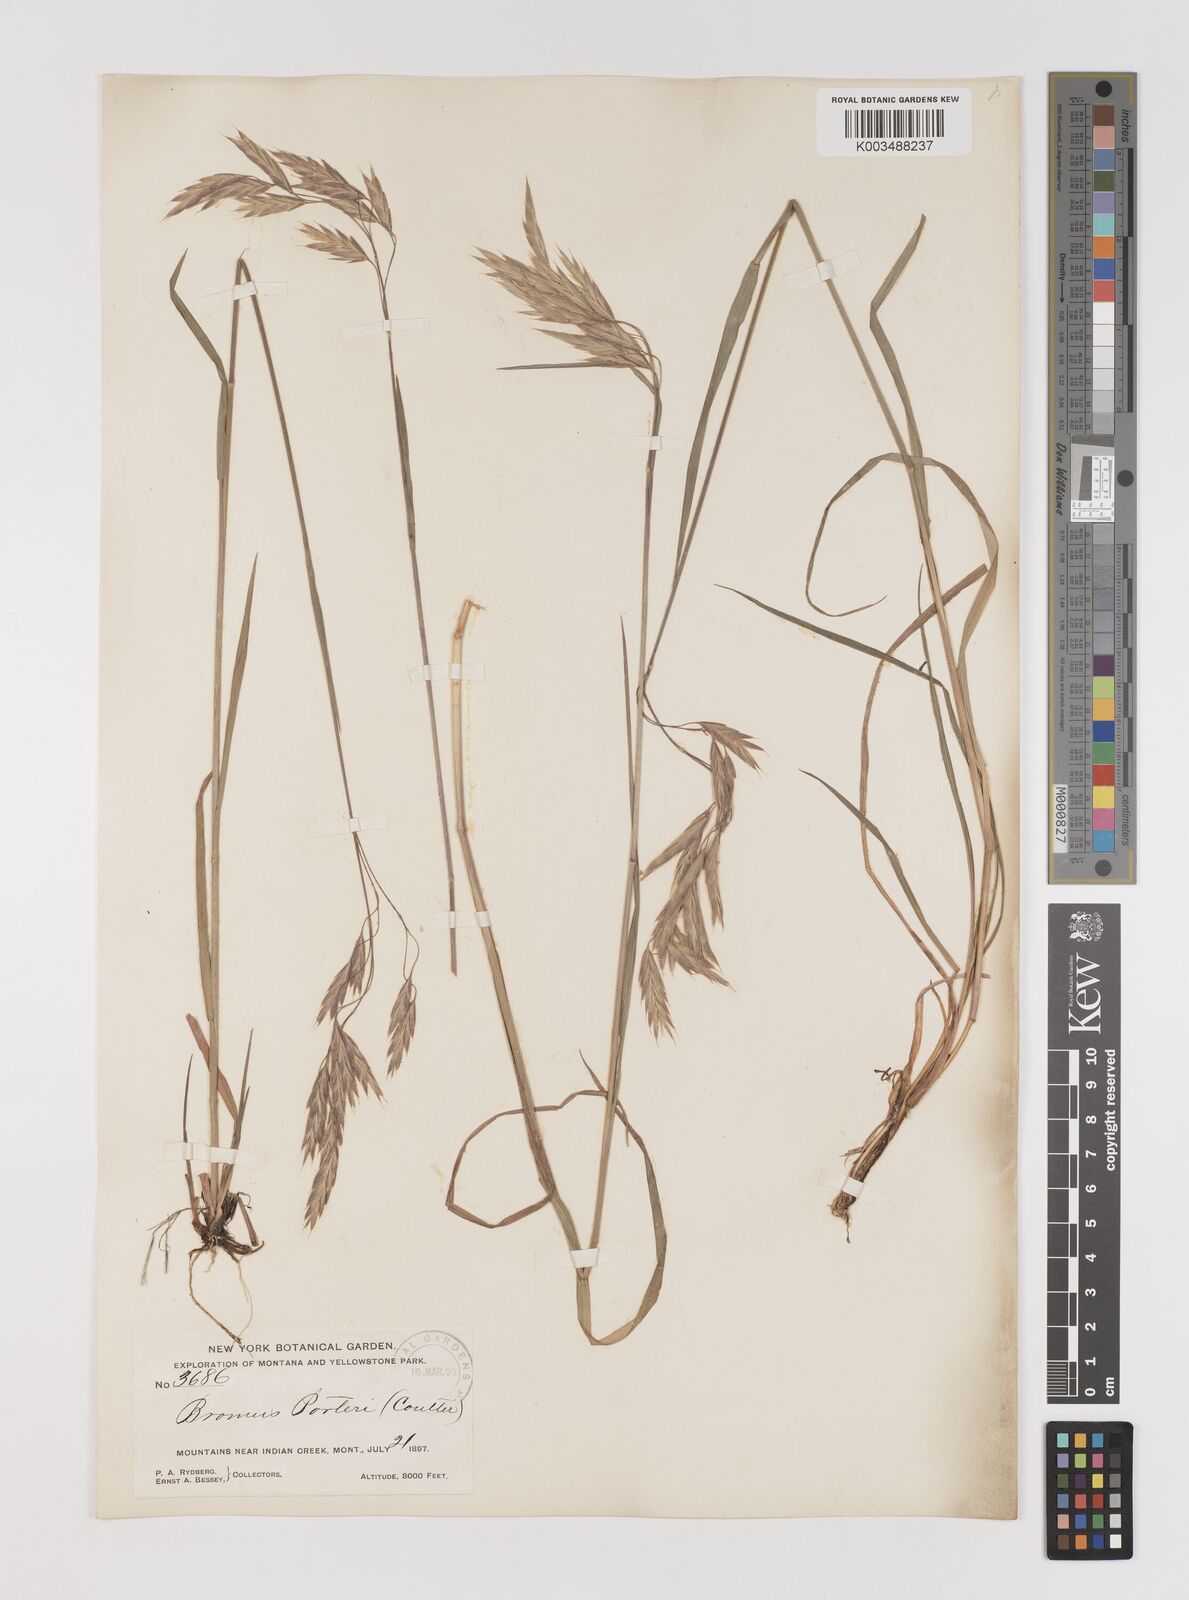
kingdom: Plantae
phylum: Tracheophyta
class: Liliopsida
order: Poales
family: Poaceae
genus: Bromus
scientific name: Bromus porteri
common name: Nodding brome
